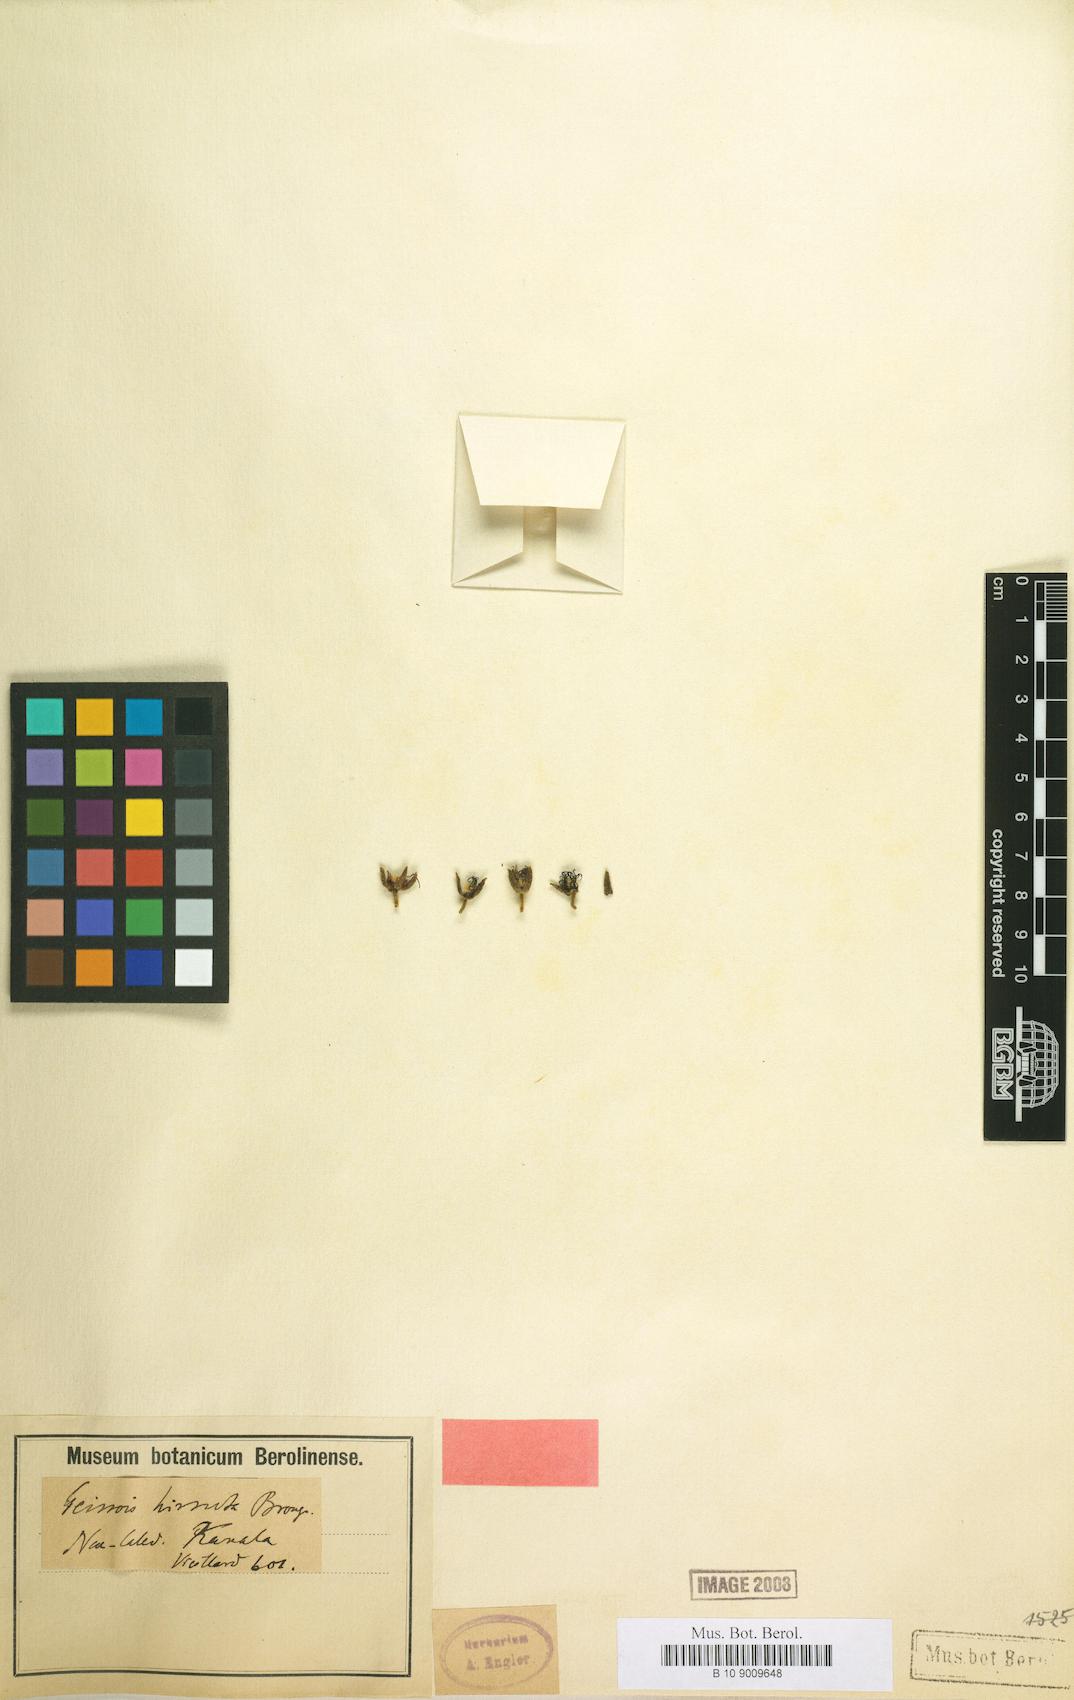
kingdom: Plantae
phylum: Tracheophyta
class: Magnoliopsida
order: Oxalidales
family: Cunoniaceae
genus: Geissois
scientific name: Geissois hirsuta
